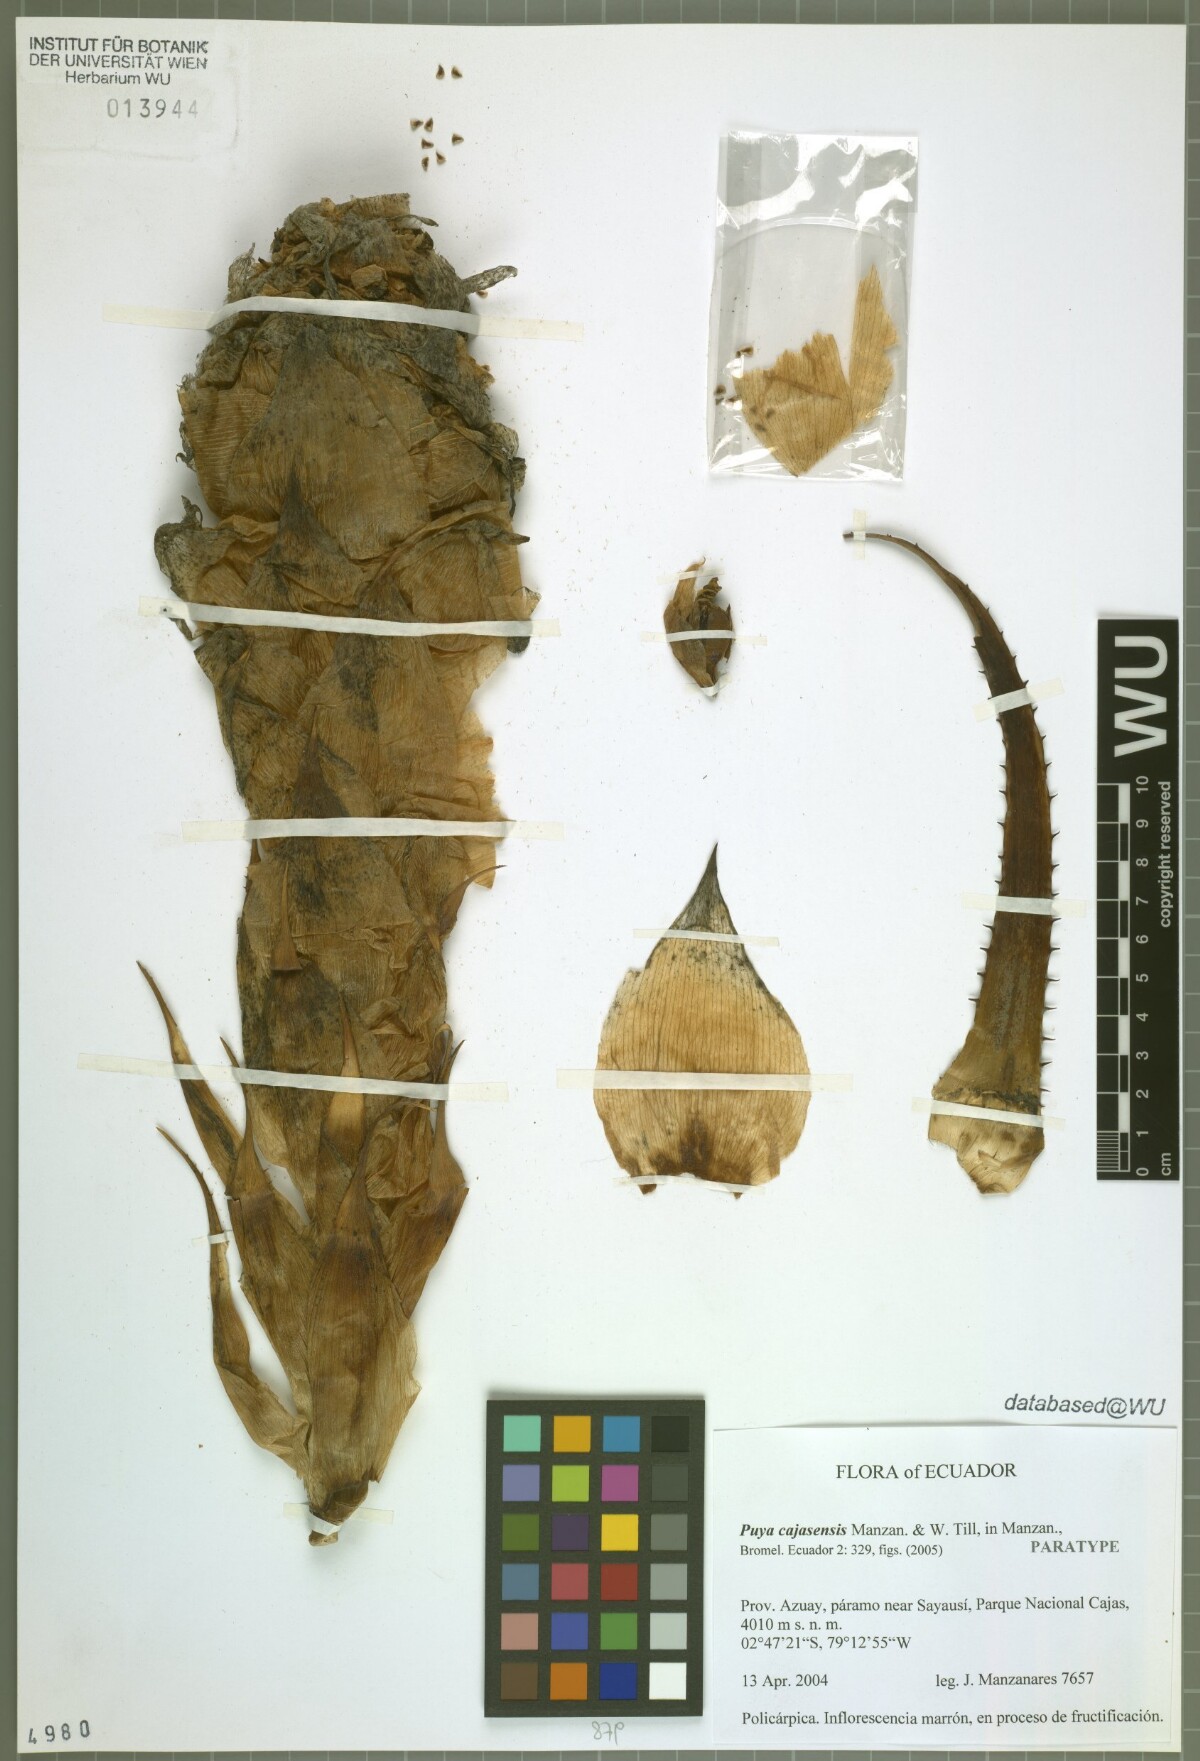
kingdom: Plantae
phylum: Tracheophyta
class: Liliopsida
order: Poales
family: Bromeliaceae
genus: Puya
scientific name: Puya cajasensis
